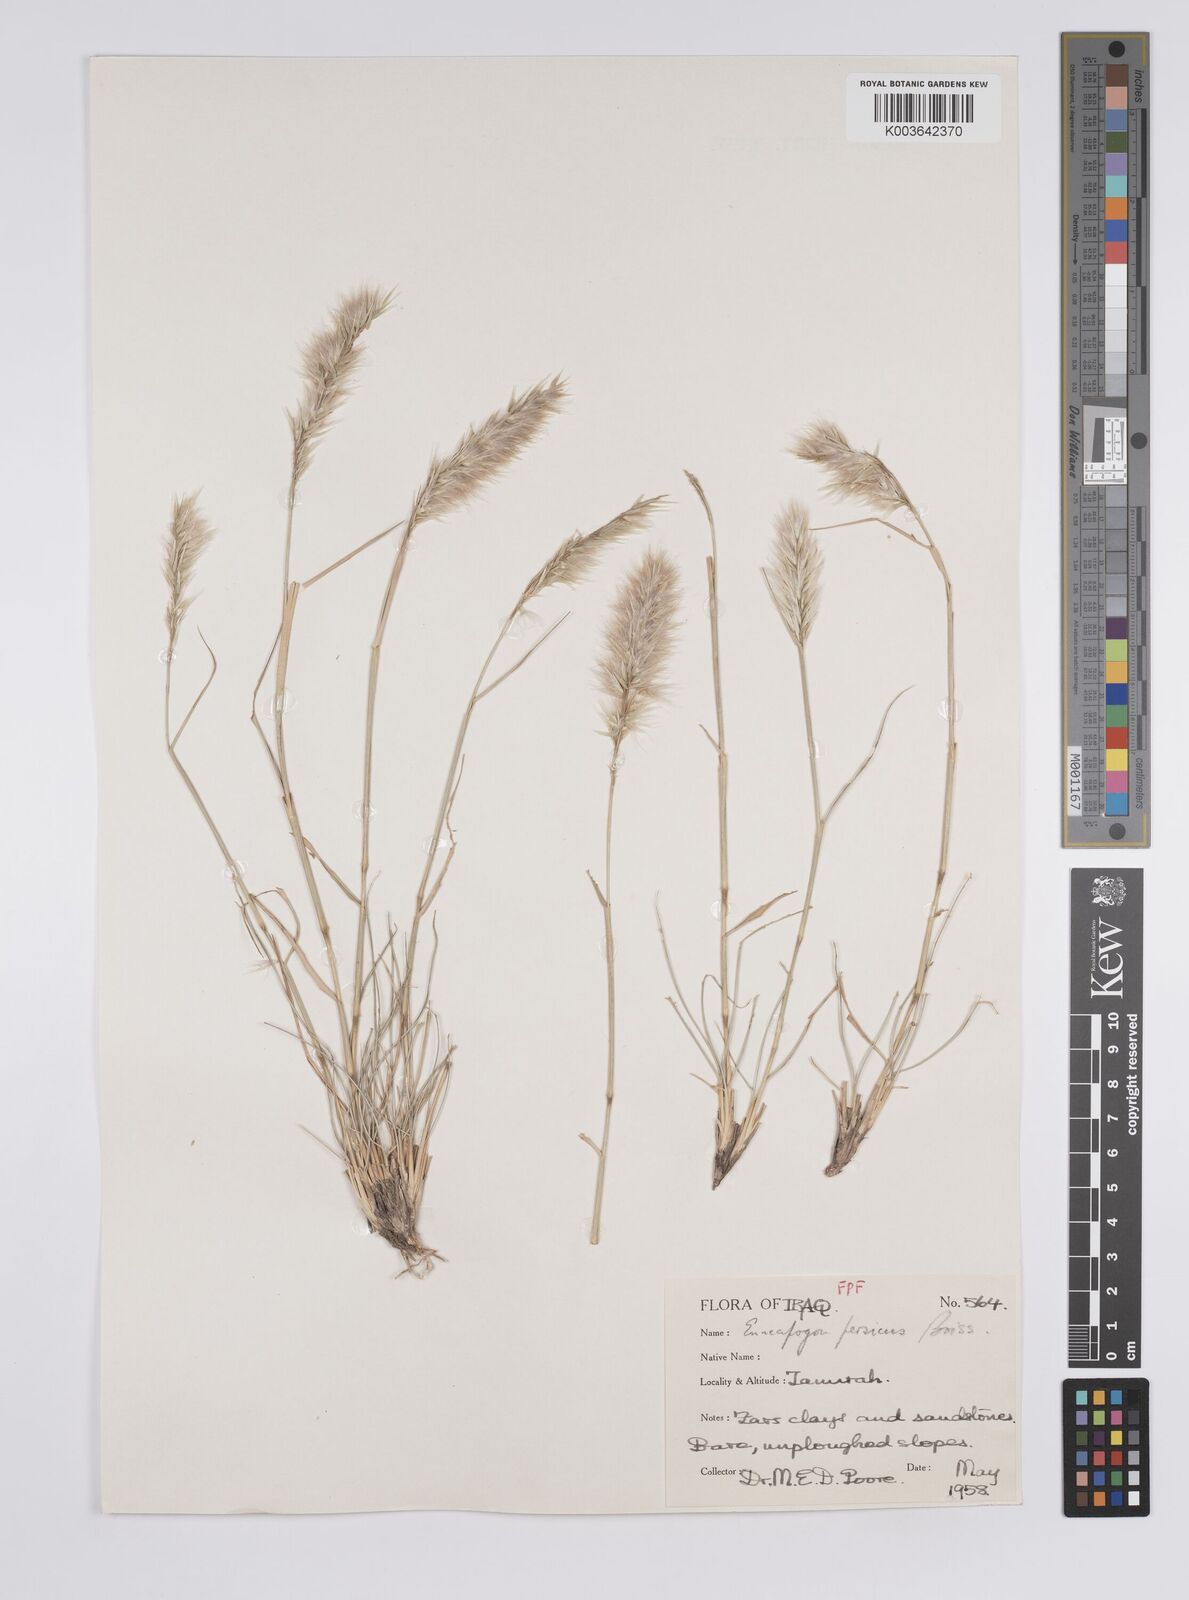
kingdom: Plantae
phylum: Tracheophyta
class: Liliopsida
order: Poales
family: Poaceae
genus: Enneapogon
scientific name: Enneapogon persicus
